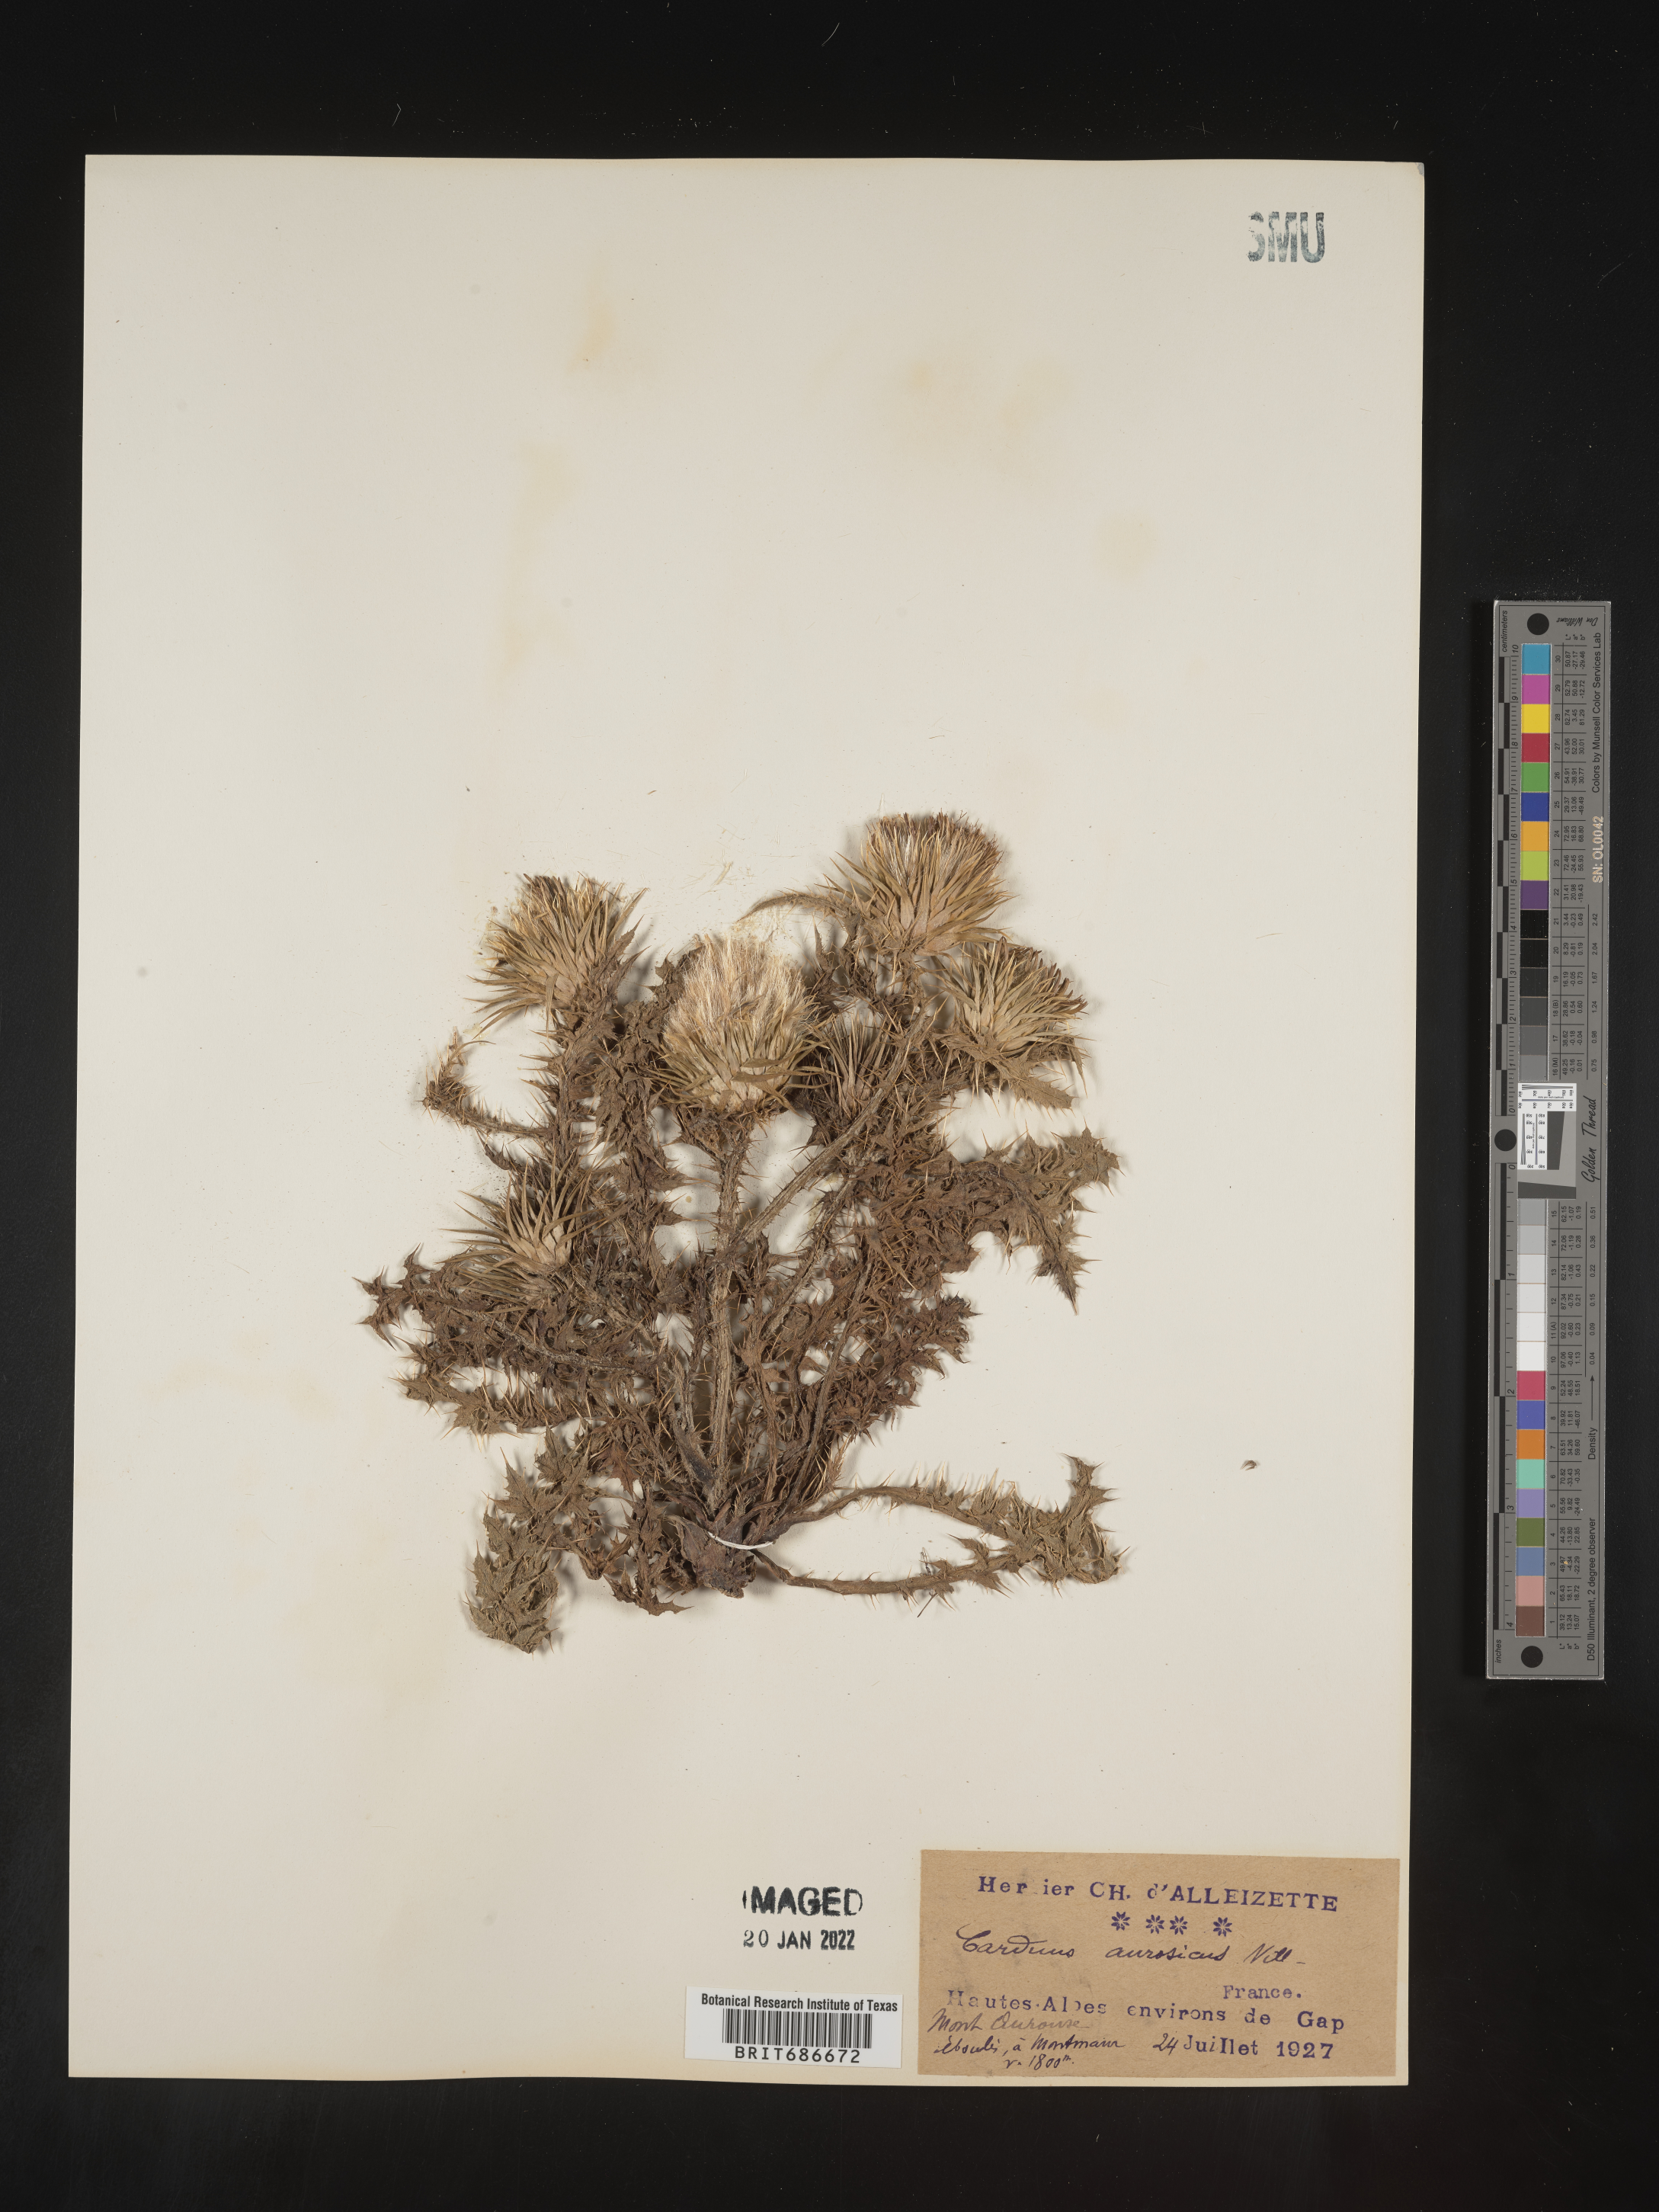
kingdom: Plantae
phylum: Tracheophyta
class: Magnoliopsida
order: Asterales
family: Asteraceae
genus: Carduus
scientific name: Carduus acanthoides
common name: Plumeless thistle
